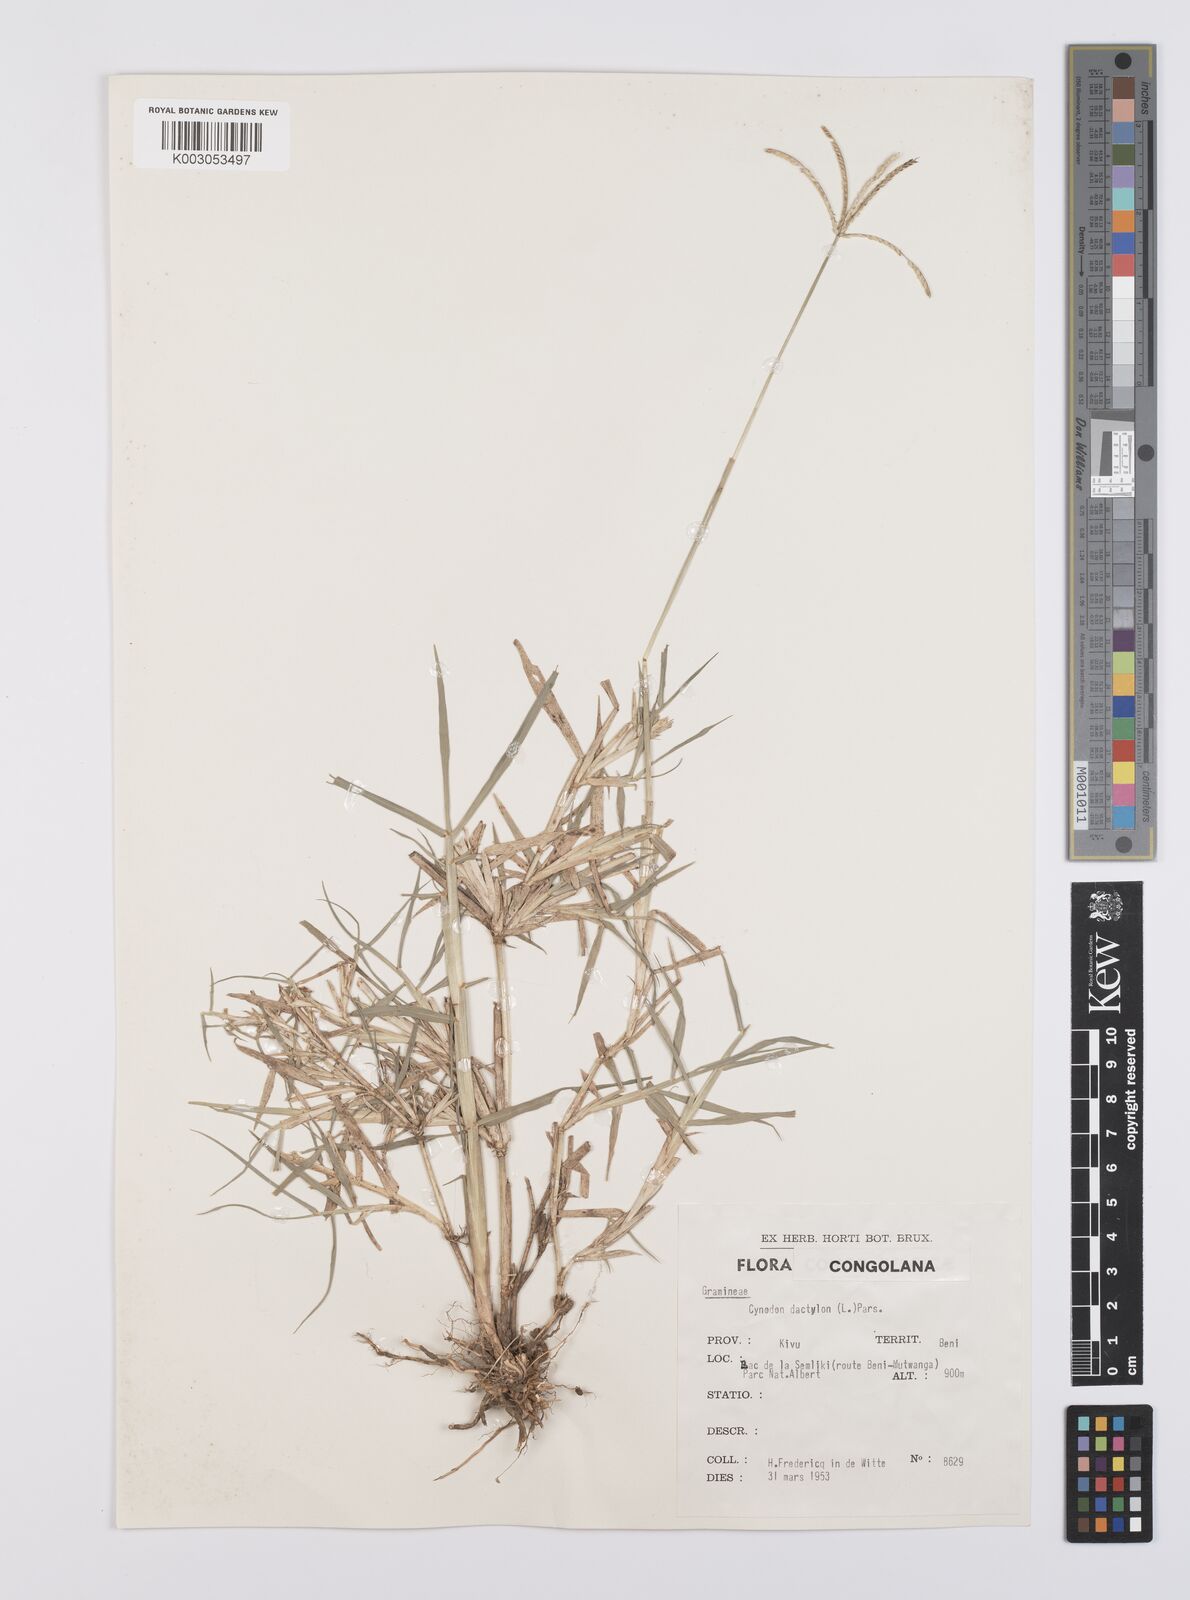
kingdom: Plantae
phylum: Tracheophyta
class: Liliopsida
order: Poales
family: Poaceae
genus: Cynodon
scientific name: Cynodon nlemfuensis
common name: African bermudagrass
